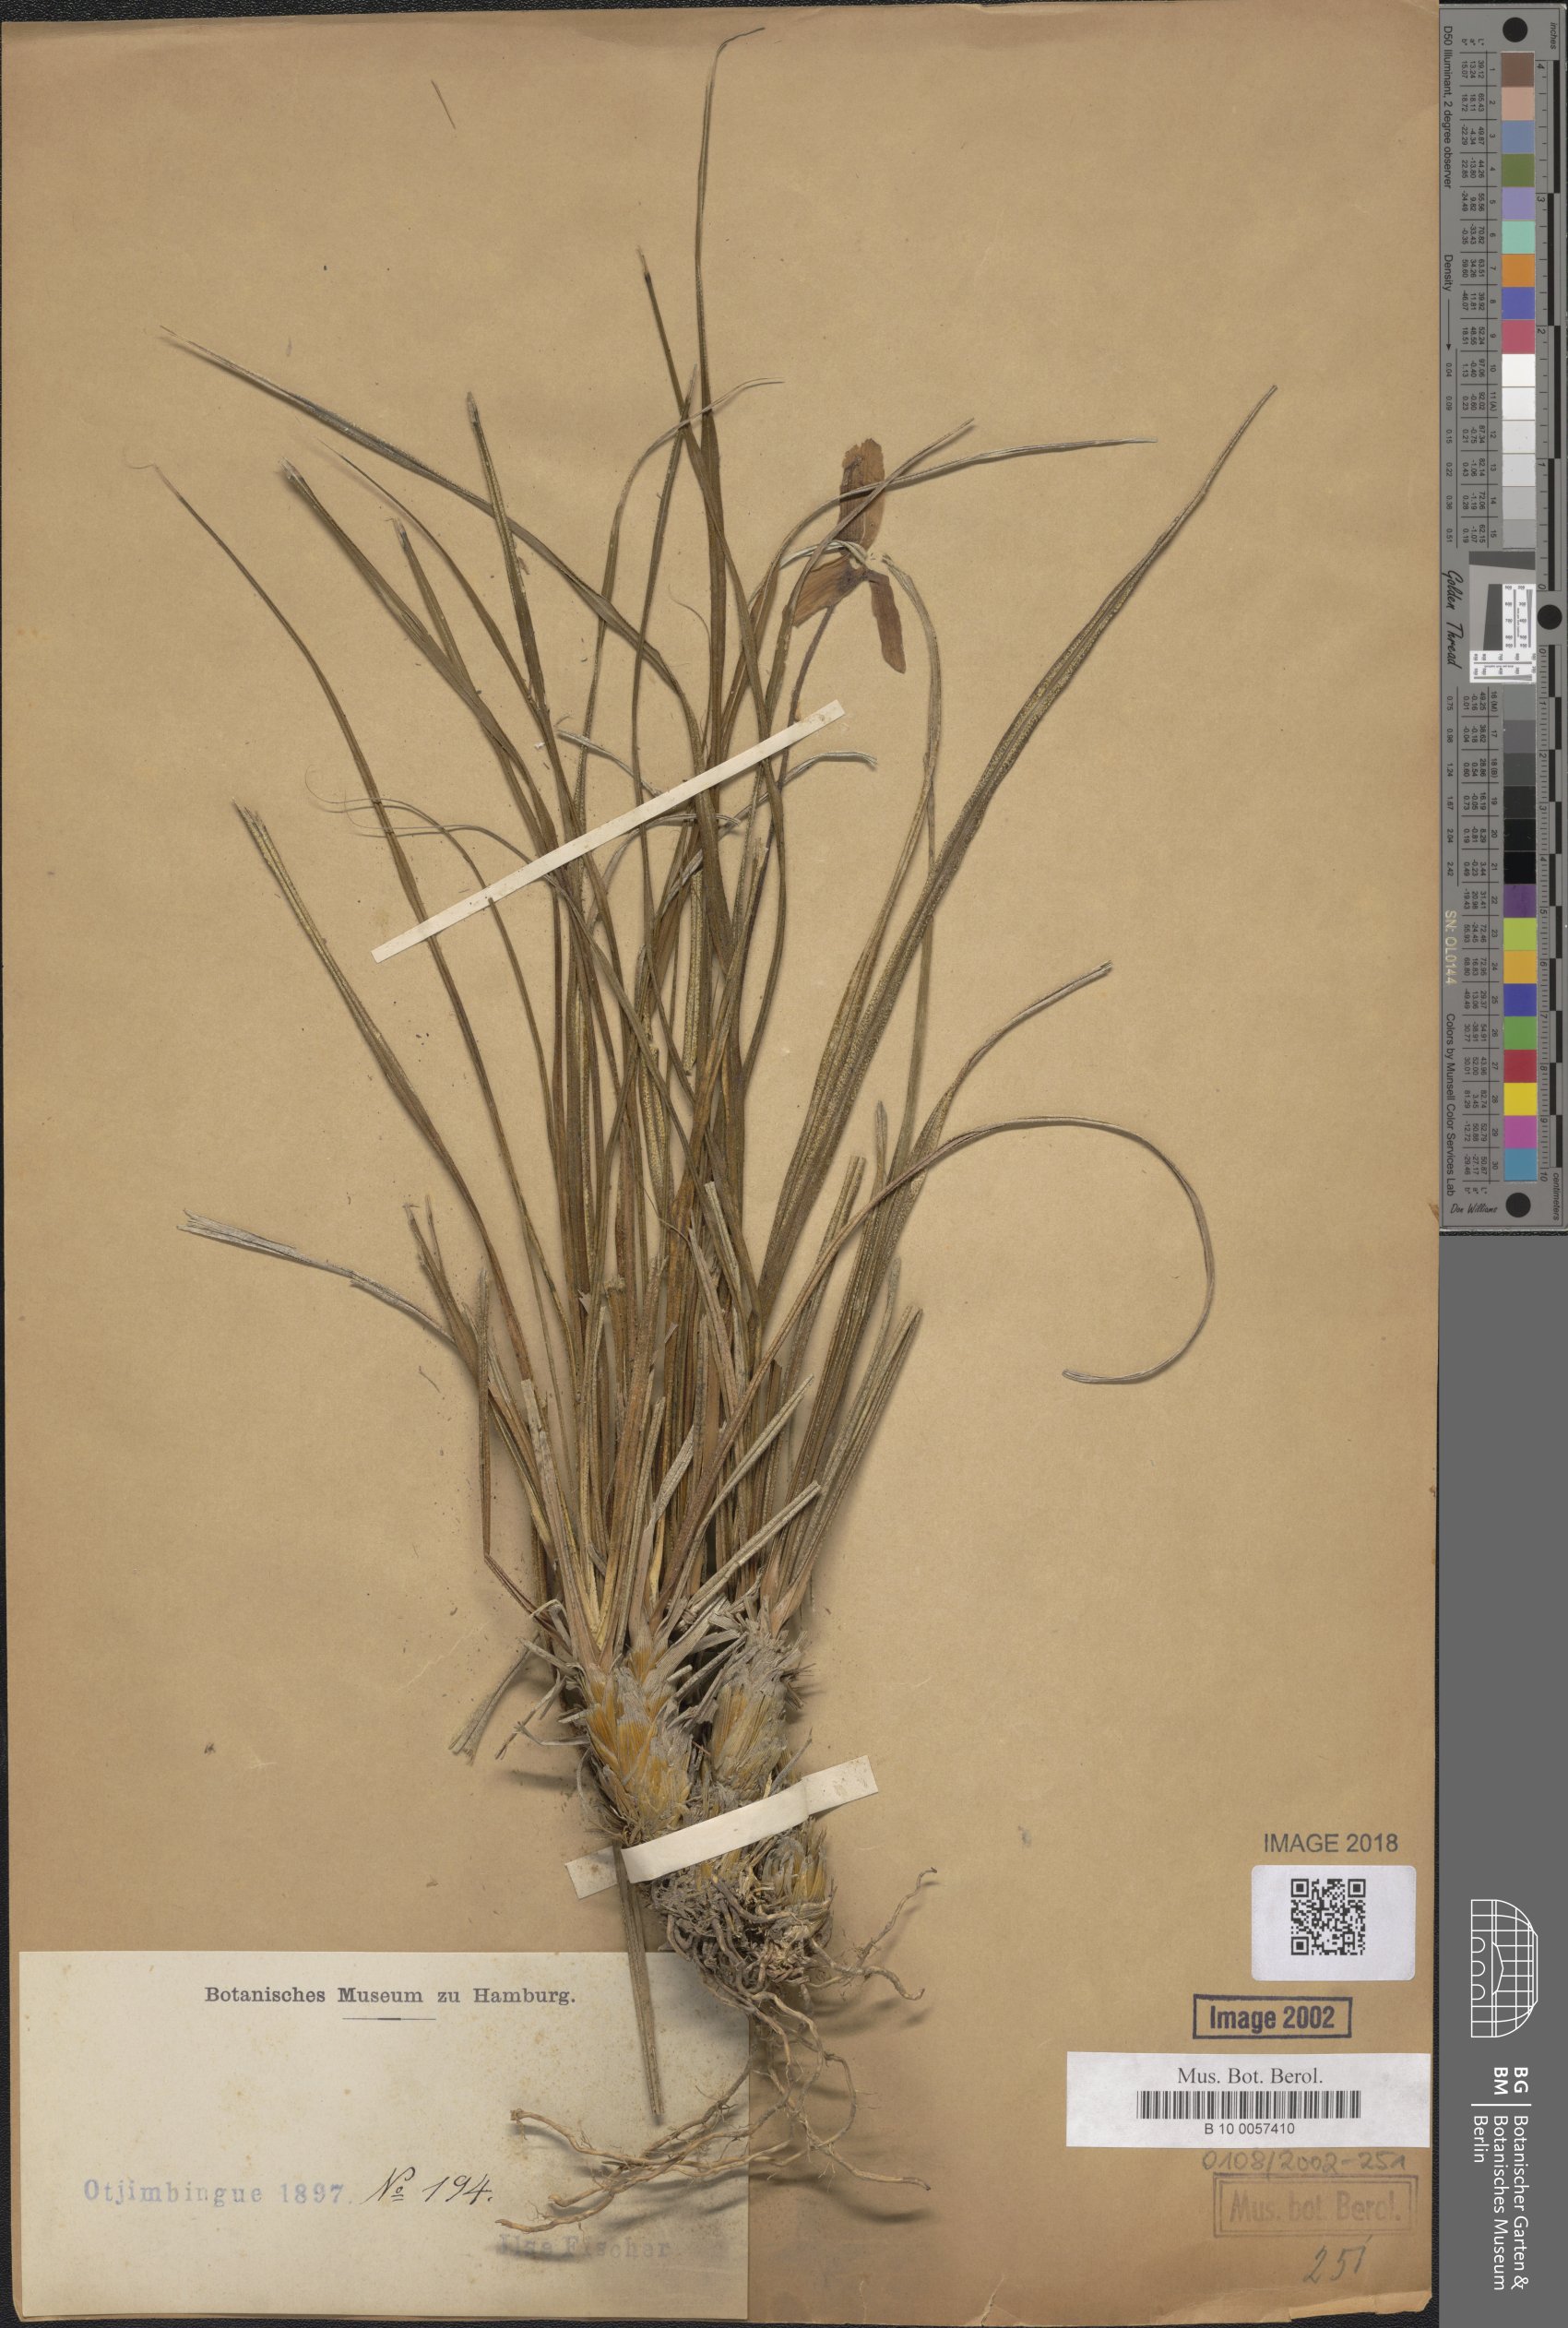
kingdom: Plantae
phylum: Tracheophyta
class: Liliopsida
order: Pandanales
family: Velloziaceae
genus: Xerophyta
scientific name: Xerophyta
